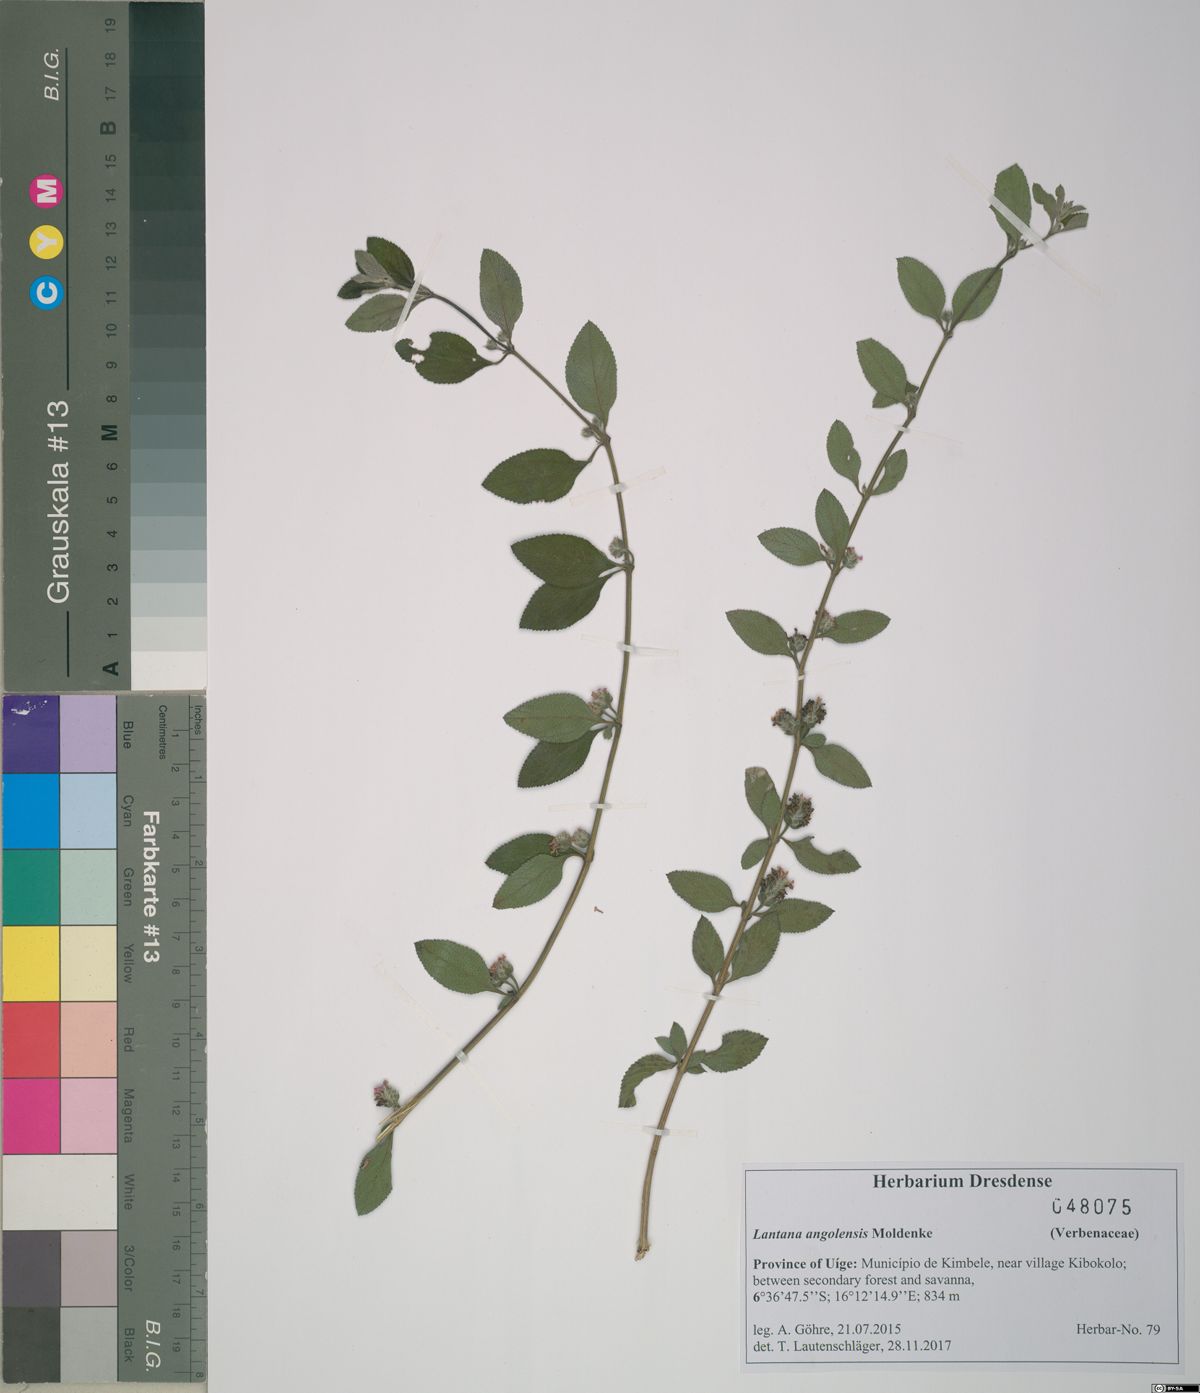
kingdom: Plantae
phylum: Tracheophyta
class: Magnoliopsida
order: Lamiales
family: Verbenaceae
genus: Lantana
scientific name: Lantana angolensis
